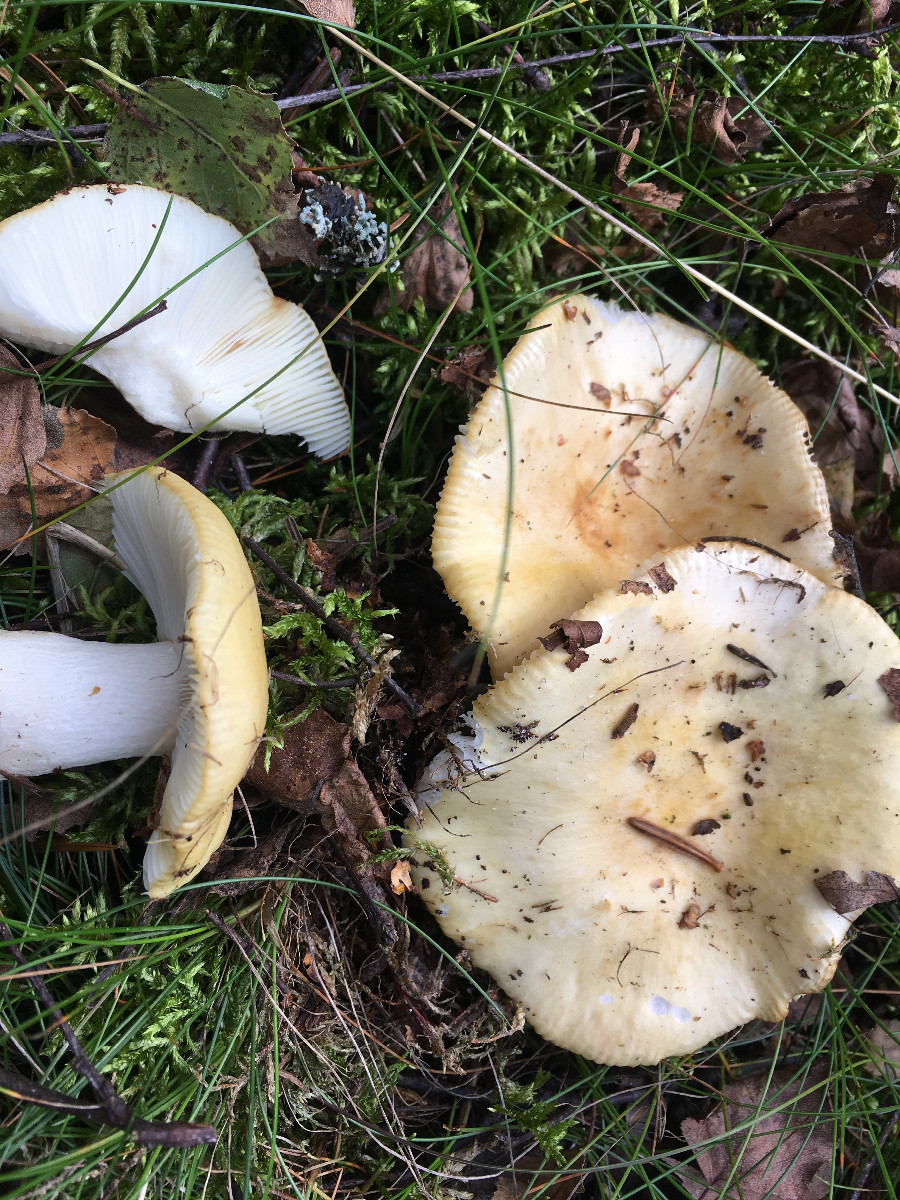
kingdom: Fungi
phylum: Basidiomycota
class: Agaricomycetes
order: Russulales
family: Russulaceae
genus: Russula
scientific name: Russula ochroleuca
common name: okkergul skørhat
